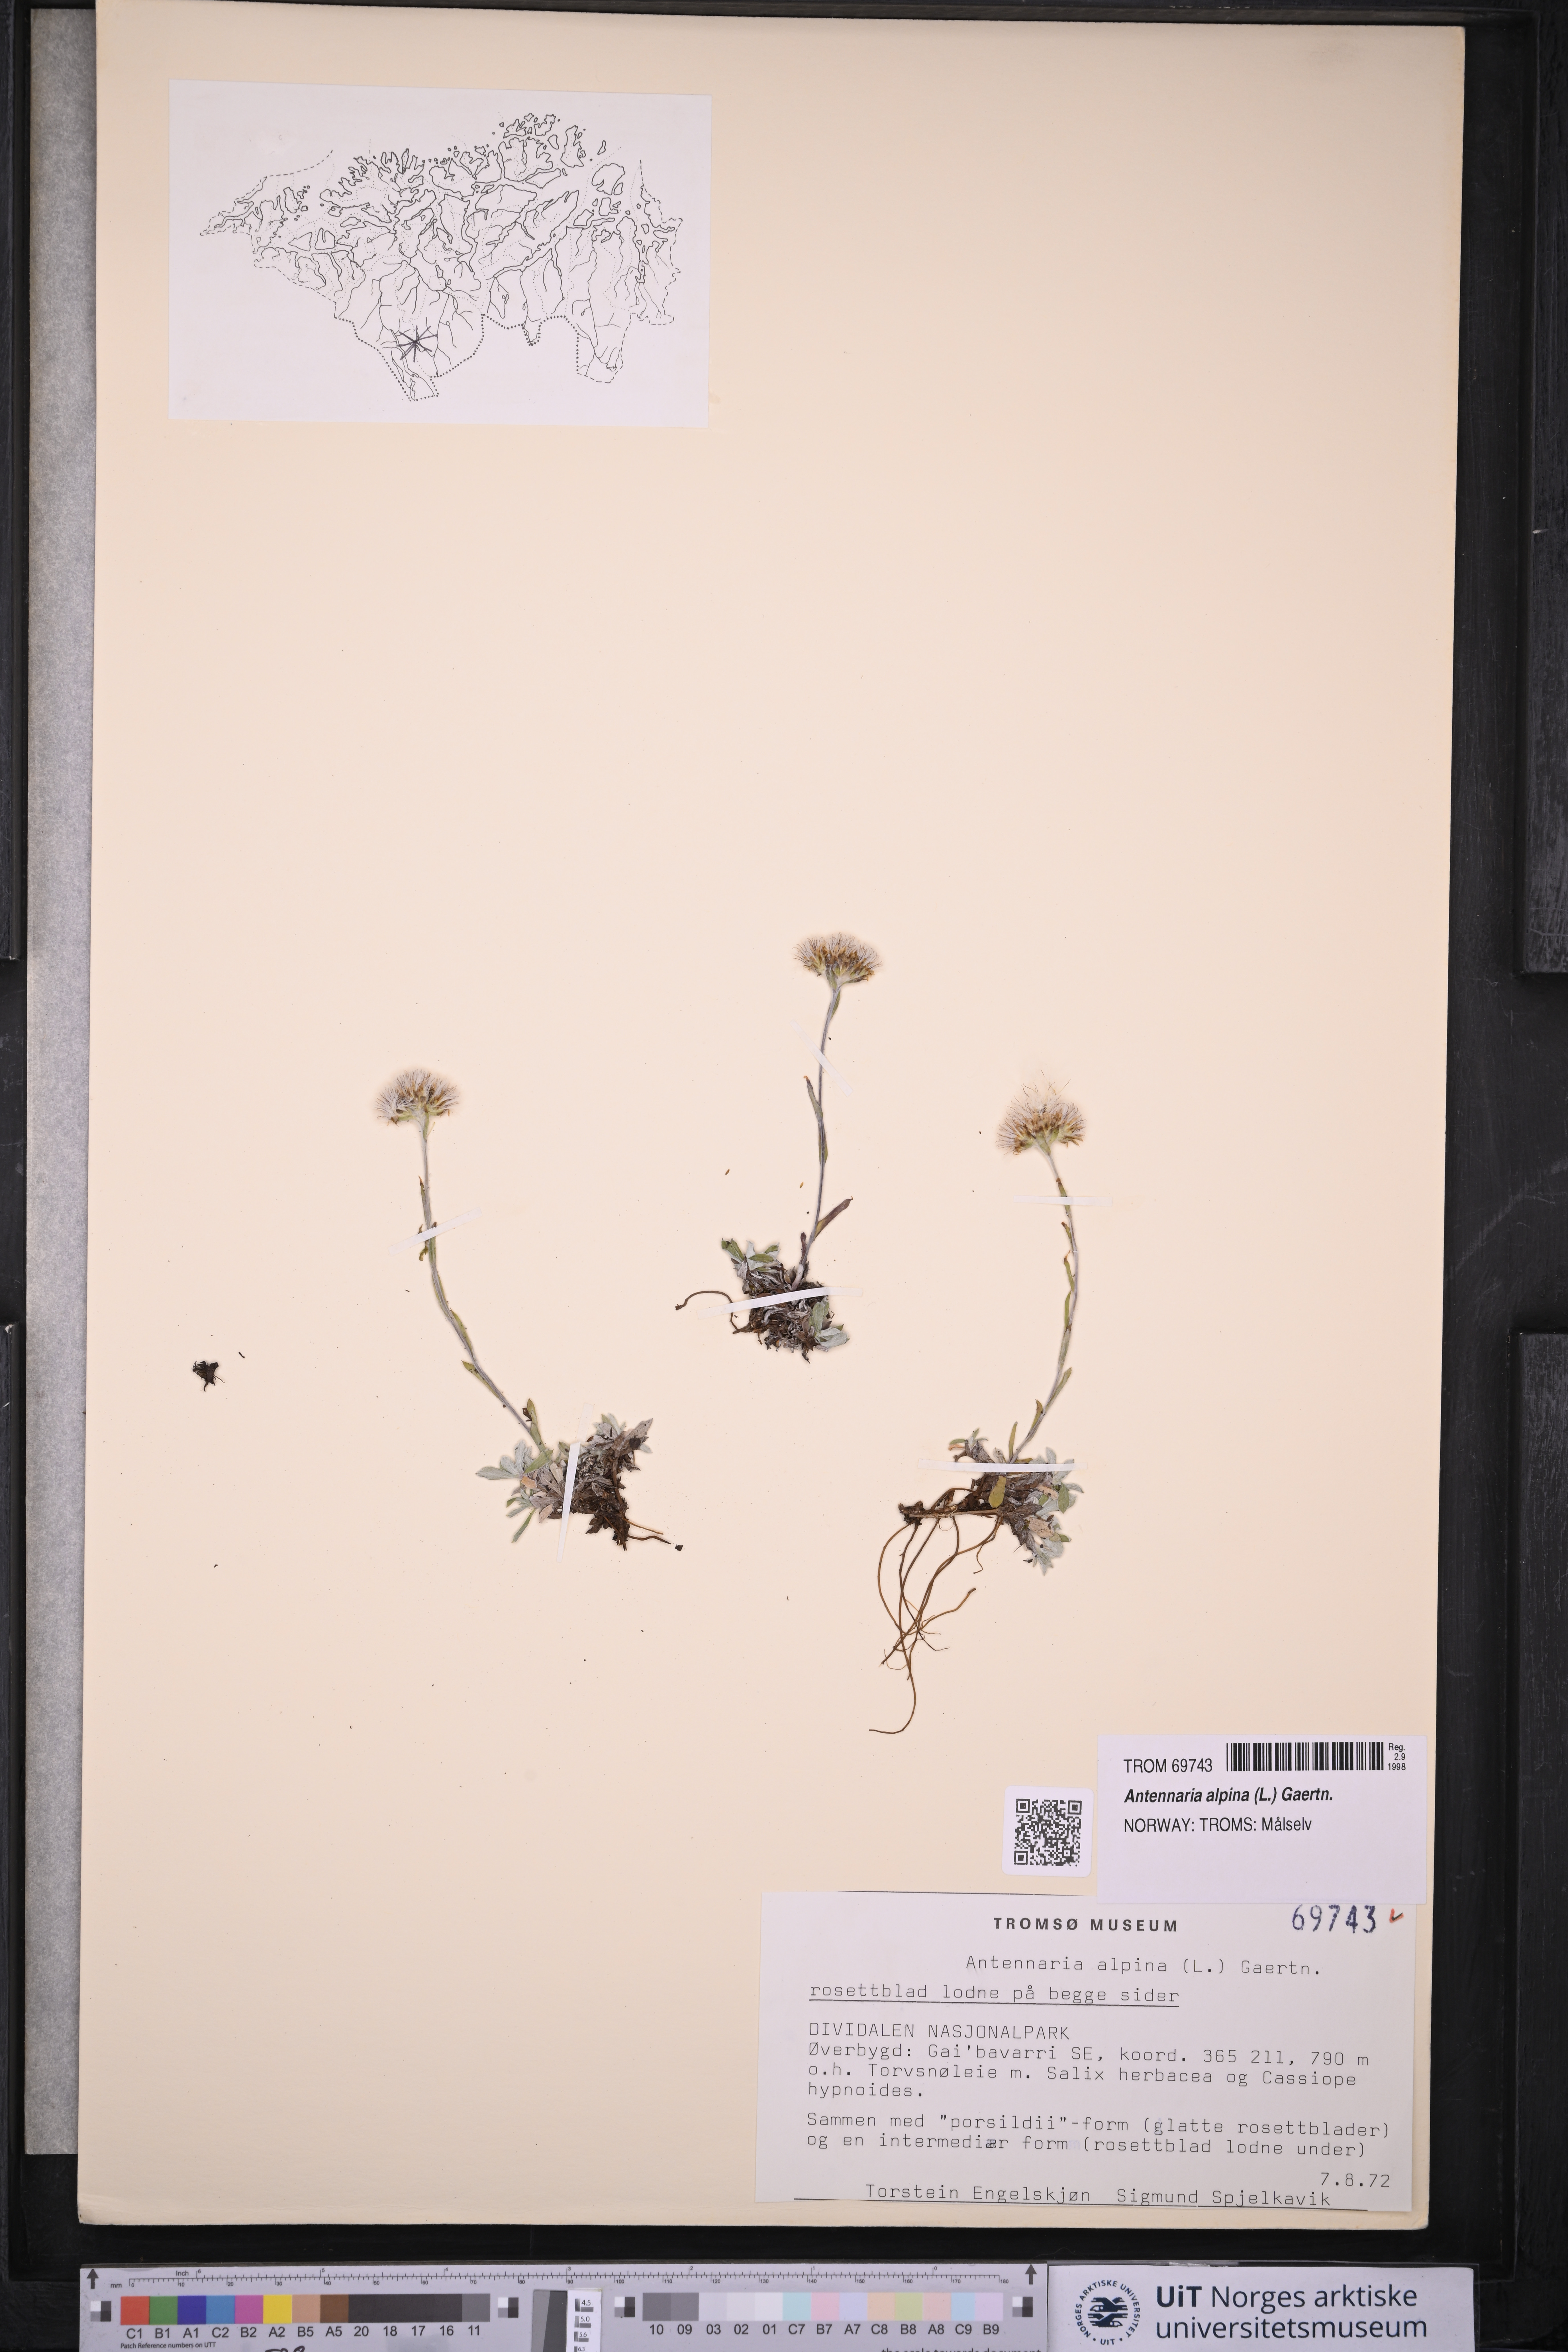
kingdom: Plantae
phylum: Tracheophyta
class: Magnoliopsida
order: Asterales
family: Asteraceae
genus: Antennaria
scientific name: Antennaria alpina
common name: Alpine pussytoes
